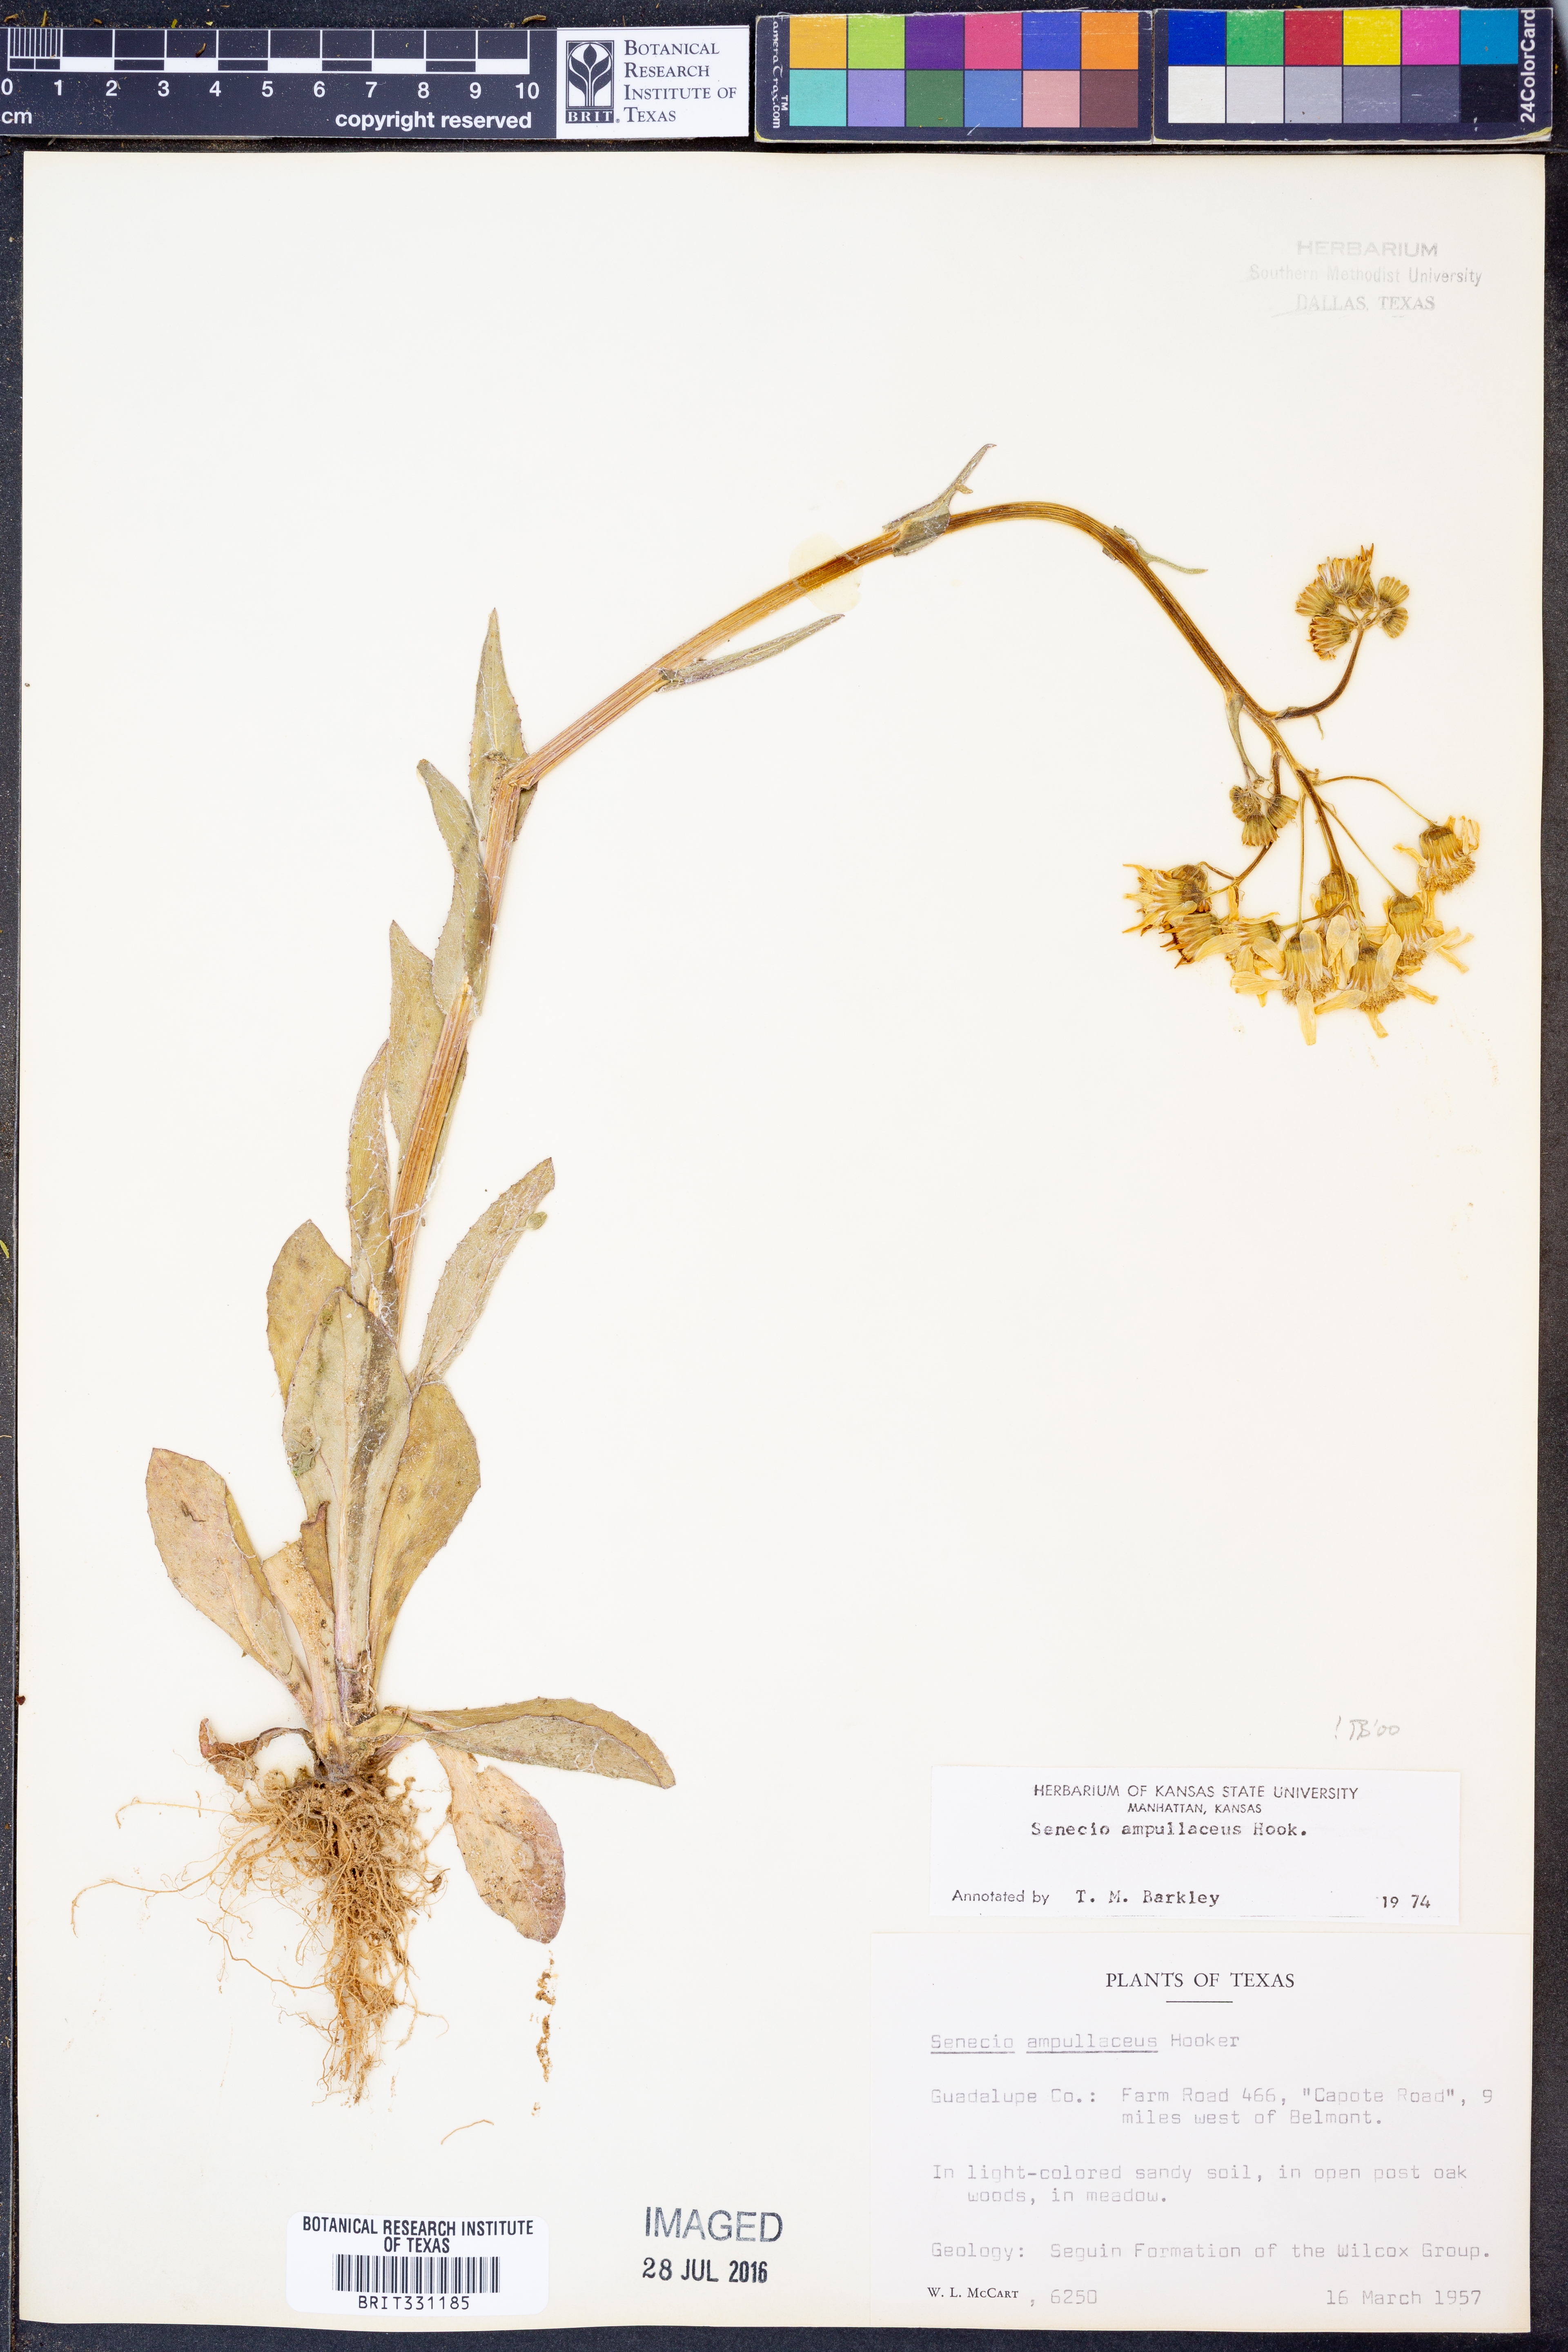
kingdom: Plantae
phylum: Tracheophyta
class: Magnoliopsida
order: Asterales
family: Asteraceae
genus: Senecio
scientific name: Senecio ampullaceus
